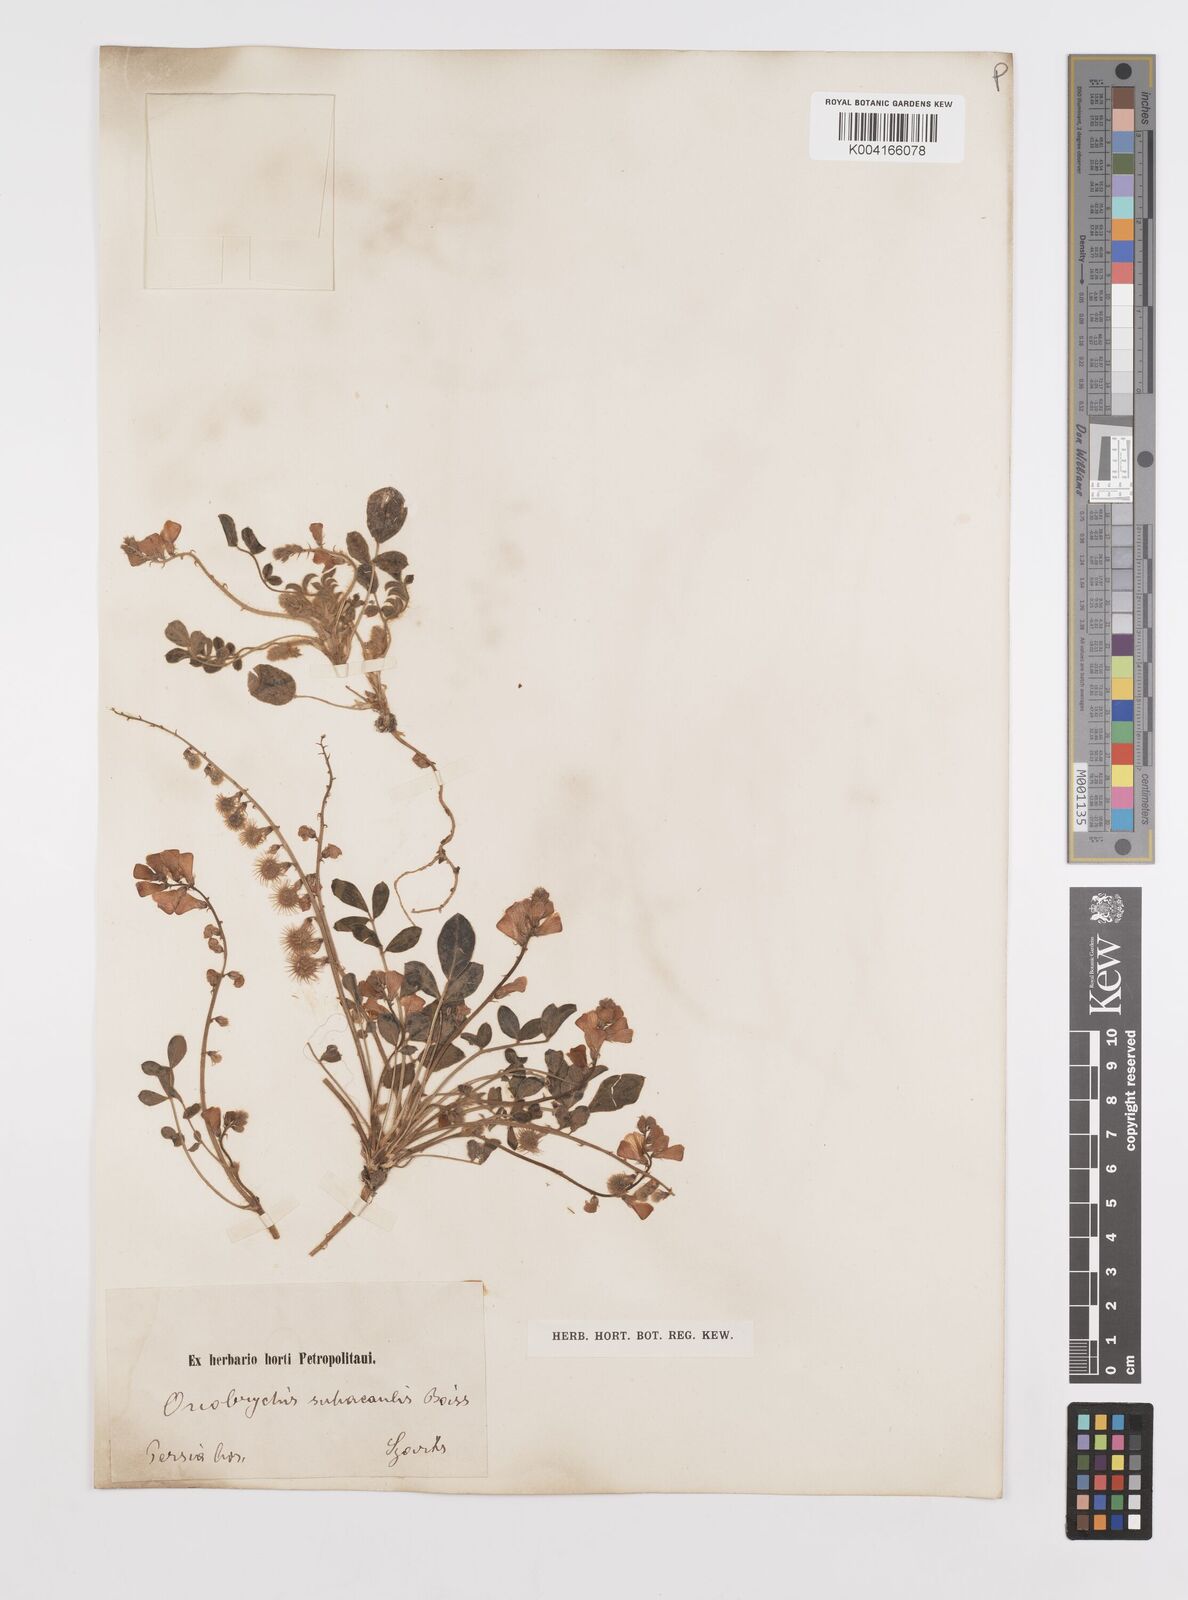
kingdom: Plantae
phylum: Tracheophyta
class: Magnoliopsida
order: Fabales
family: Fabaceae
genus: Onobrychis
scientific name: Onobrychis subacaulis
